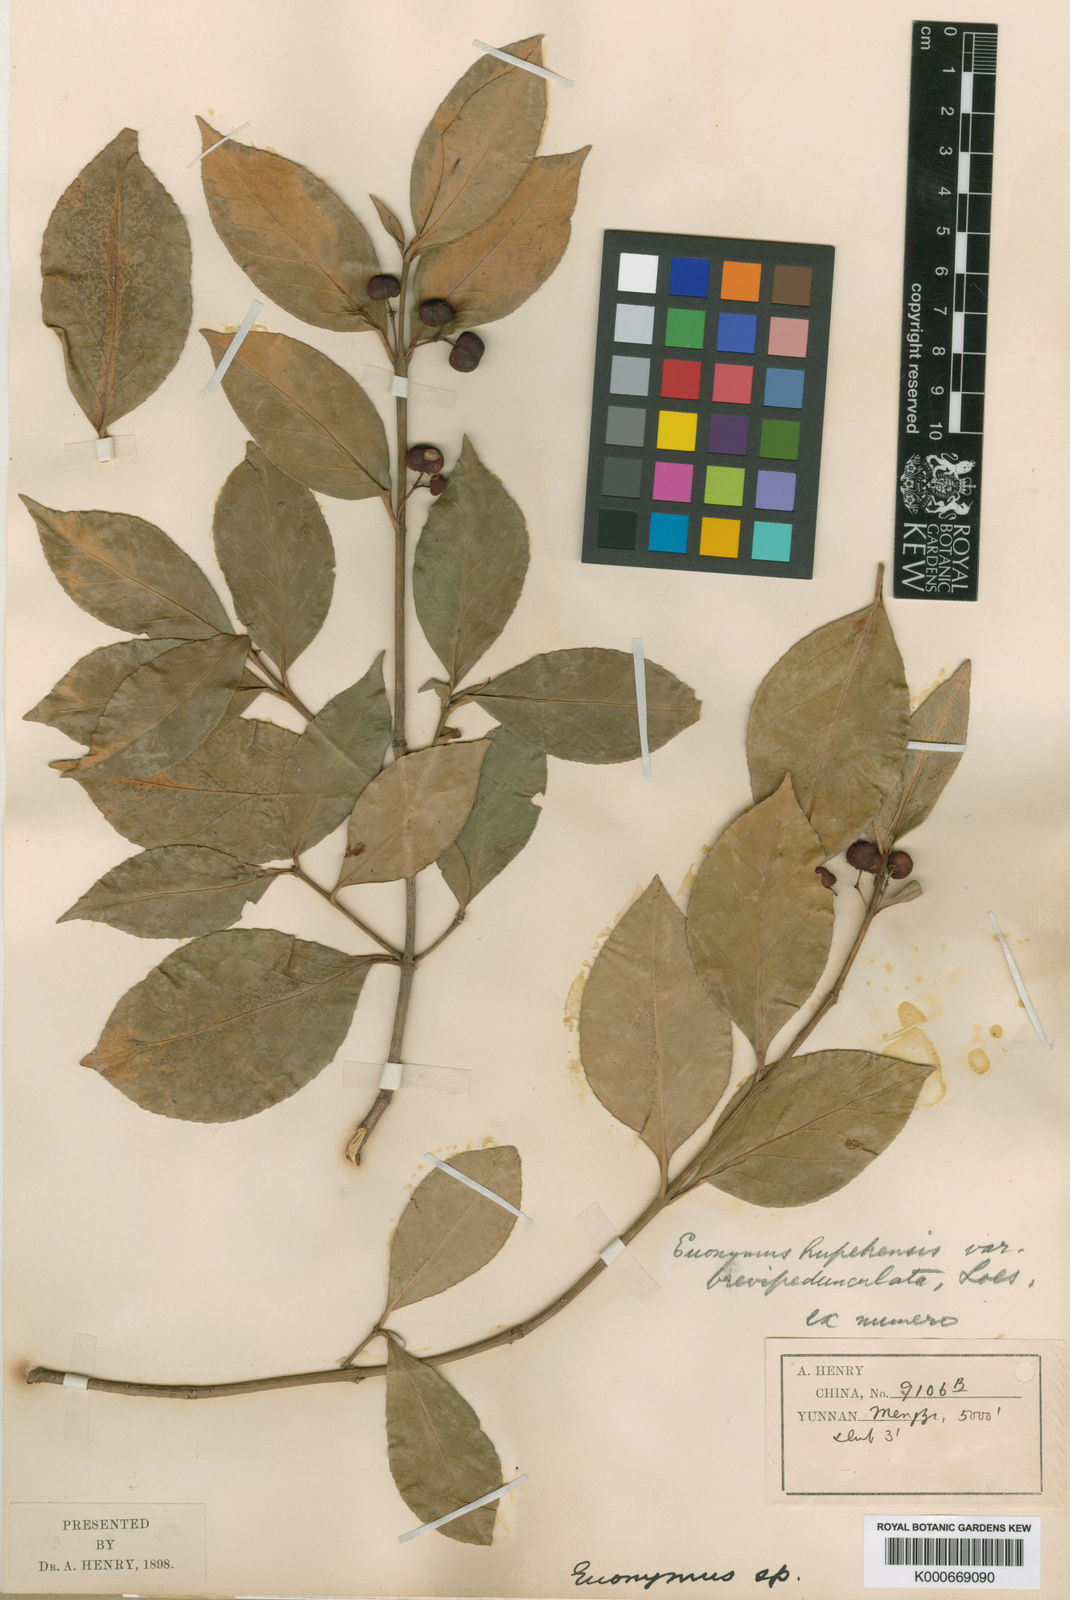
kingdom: Plantae
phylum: Tracheophyta
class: Magnoliopsida
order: Celastrales
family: Celastraceae
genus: Euonymus
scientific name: Euonymus vagans
